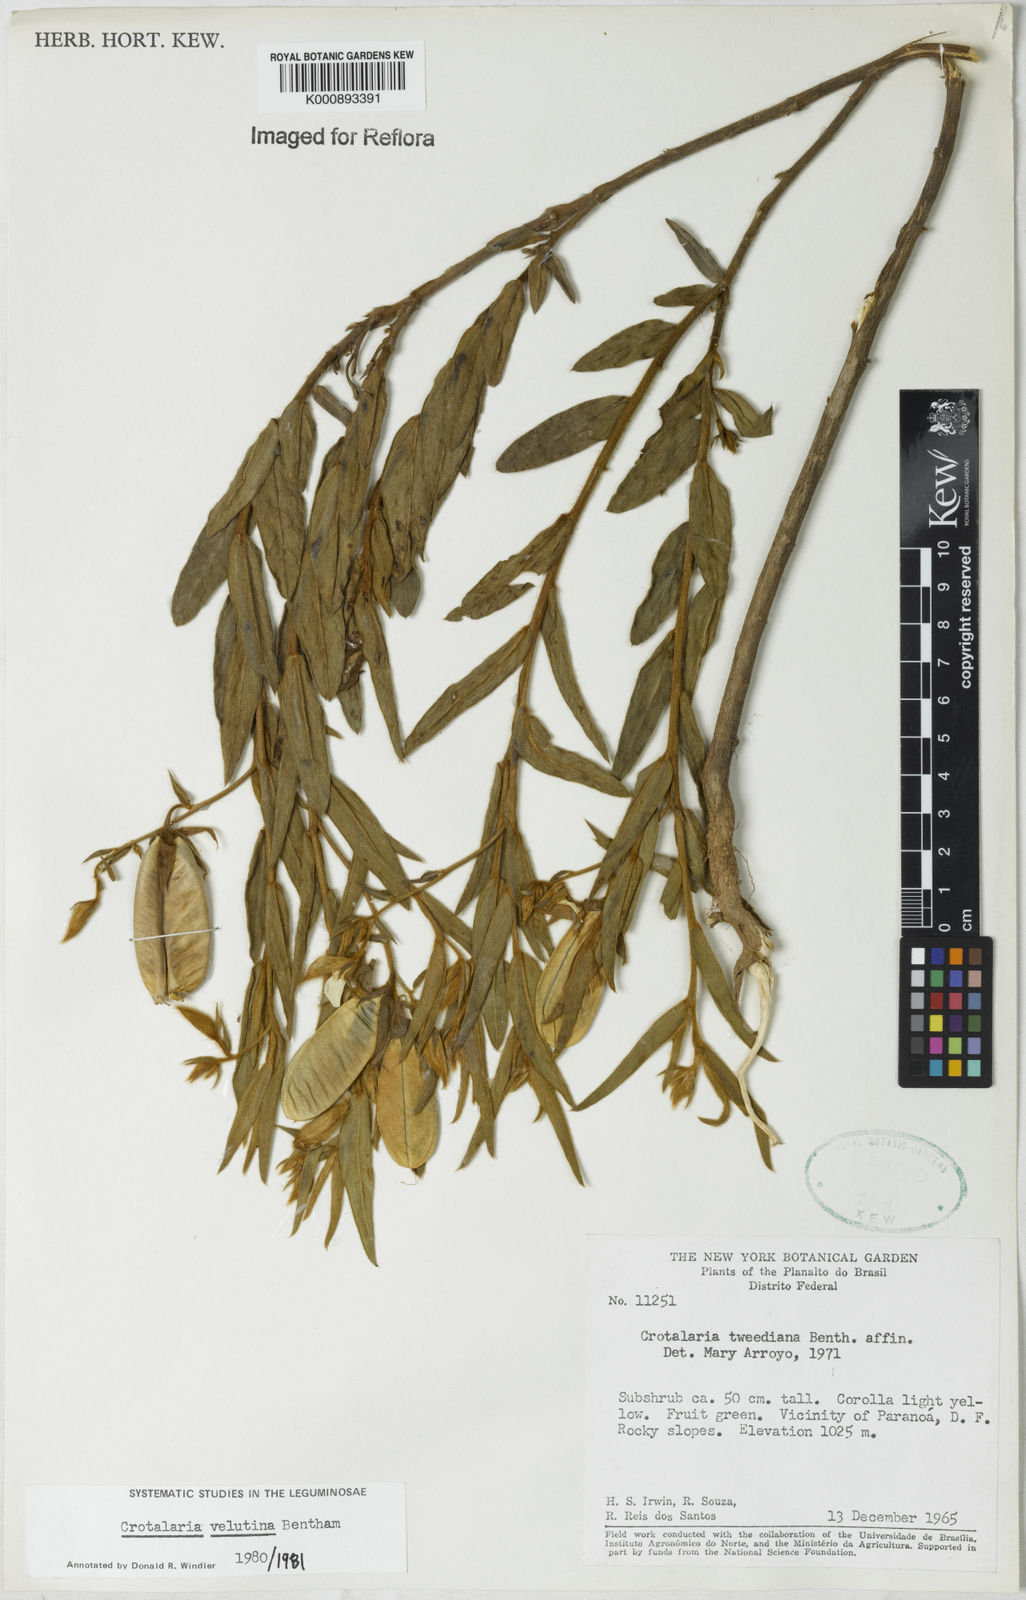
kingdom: Plantae
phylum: Tracheophyta
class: Magnoliopsida
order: Fabales
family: Fabaceae
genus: Crotalaria
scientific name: Crotalaria velutina
